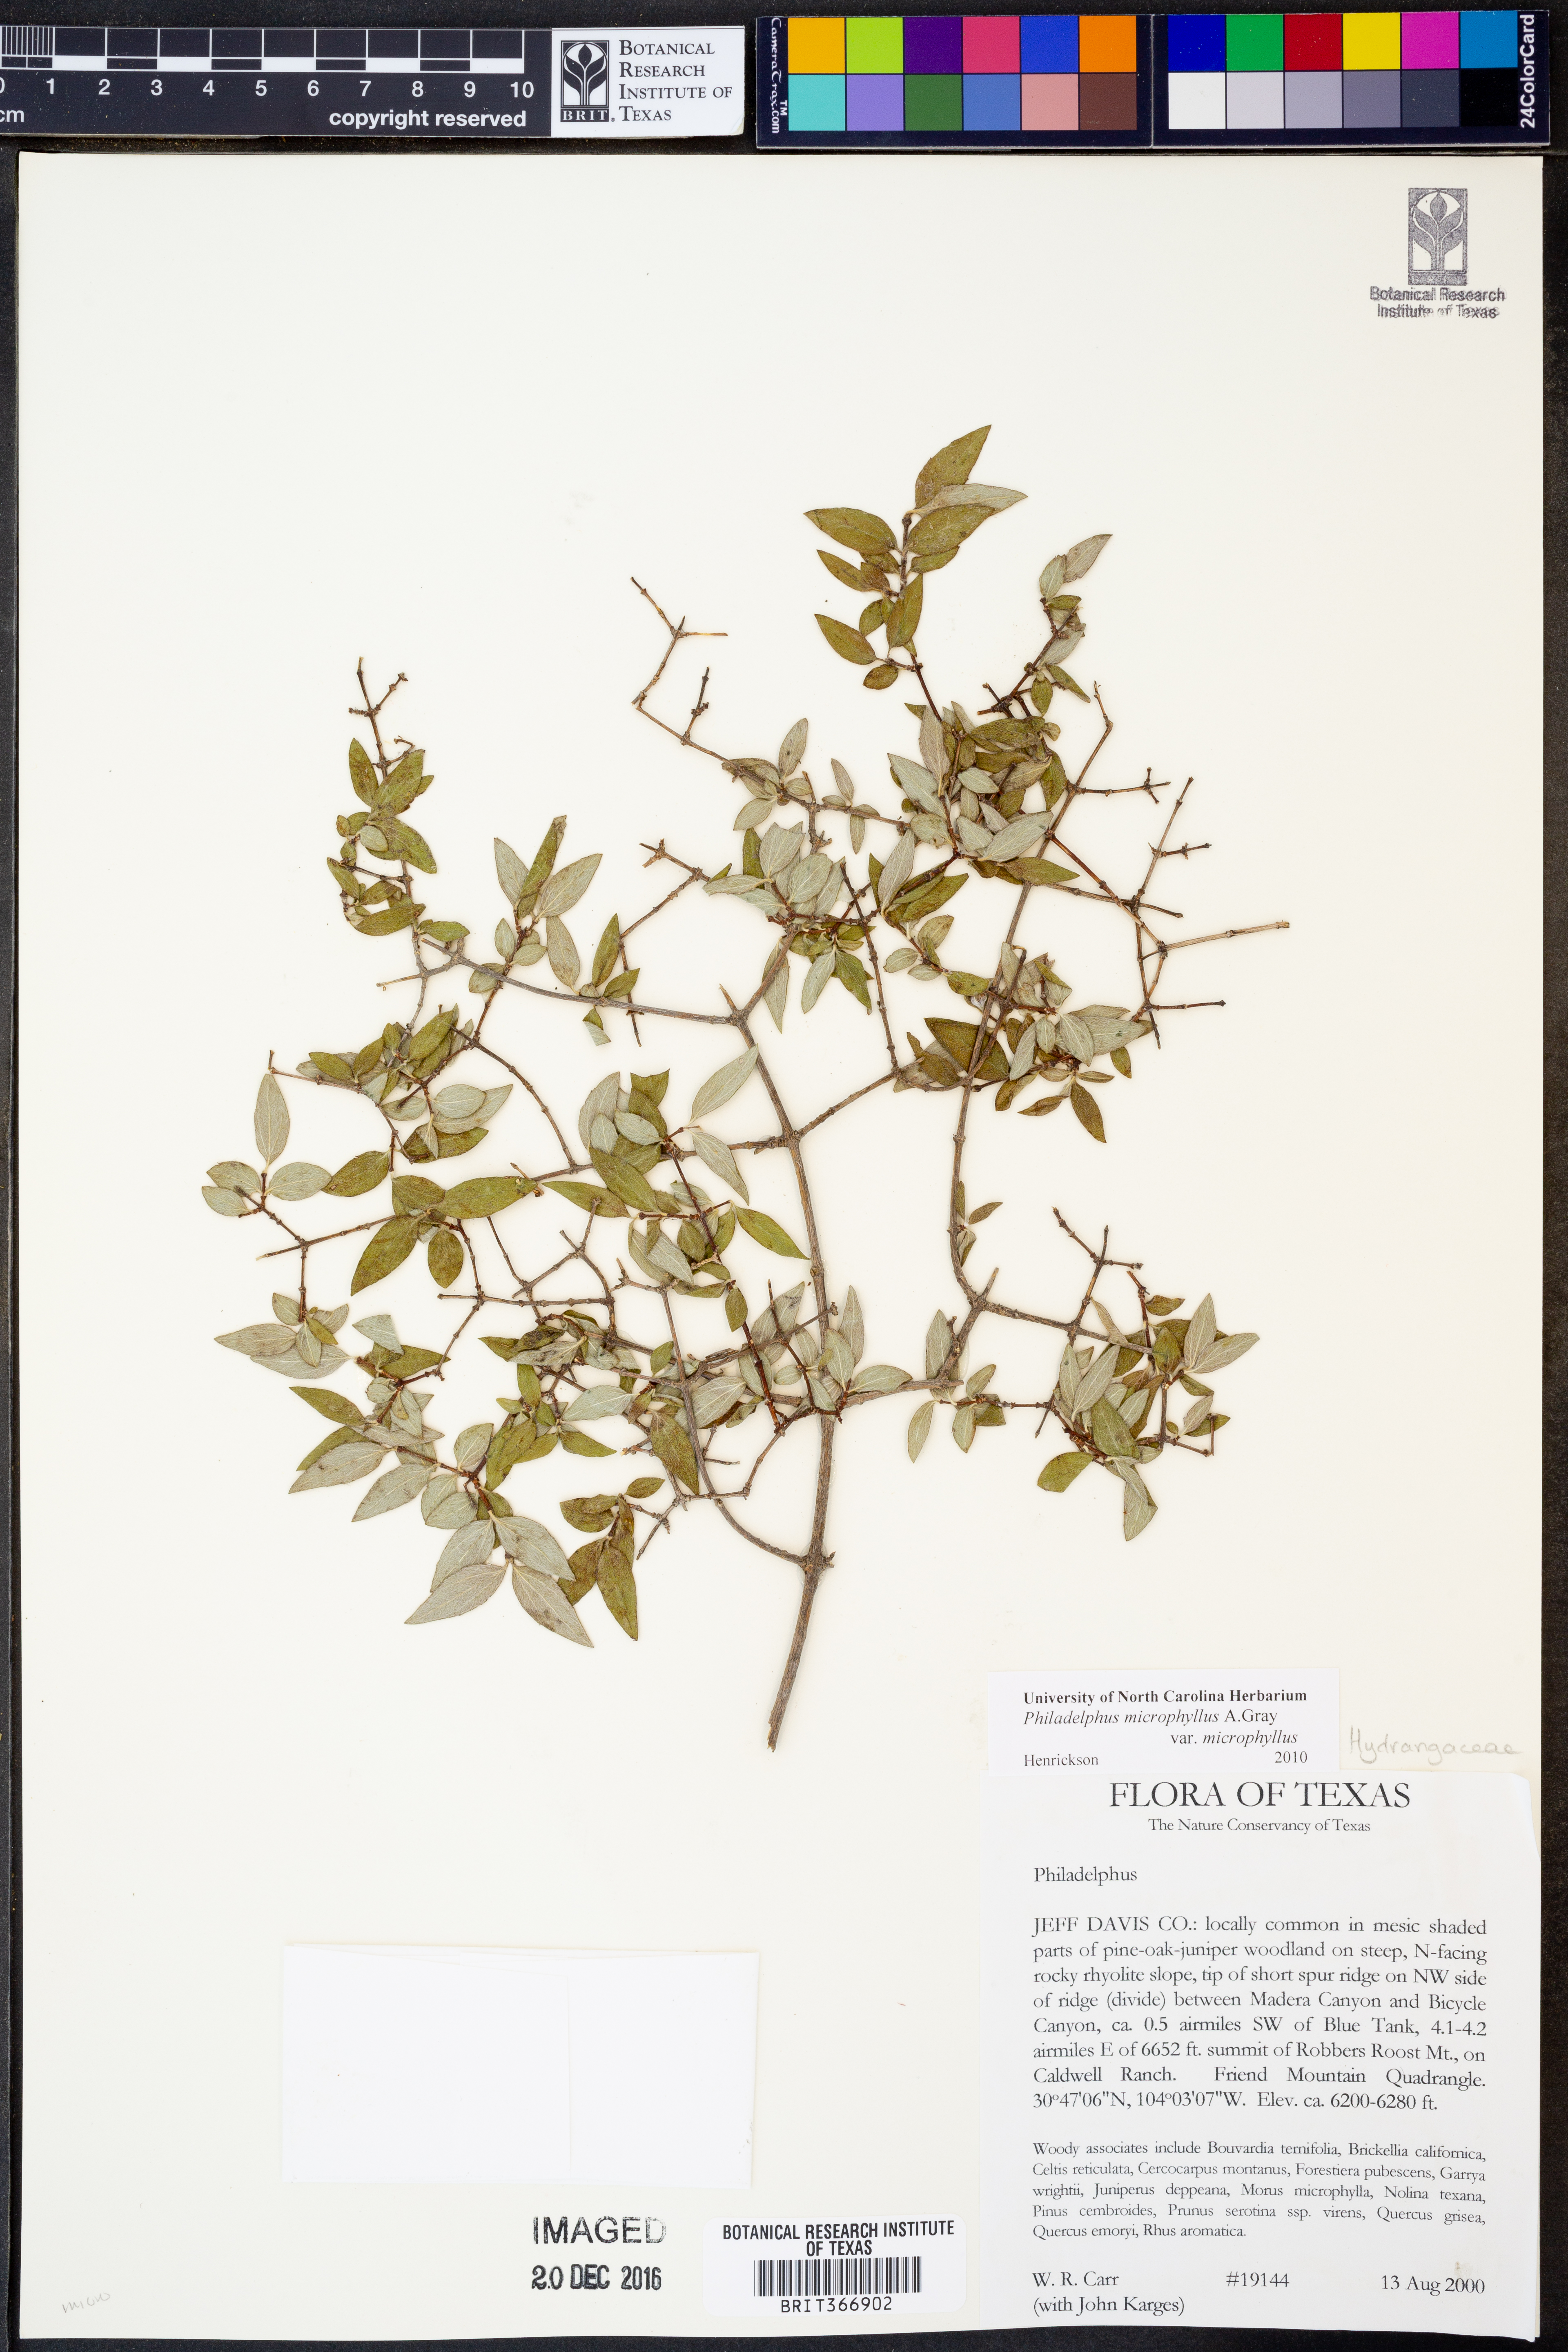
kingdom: Plantae
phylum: Tracheophyta
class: Magnoliopsida
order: Cornales
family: Hydrangeaceae
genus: Philadelphus
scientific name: Philadelphus microphyllus
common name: Desert mock orange
